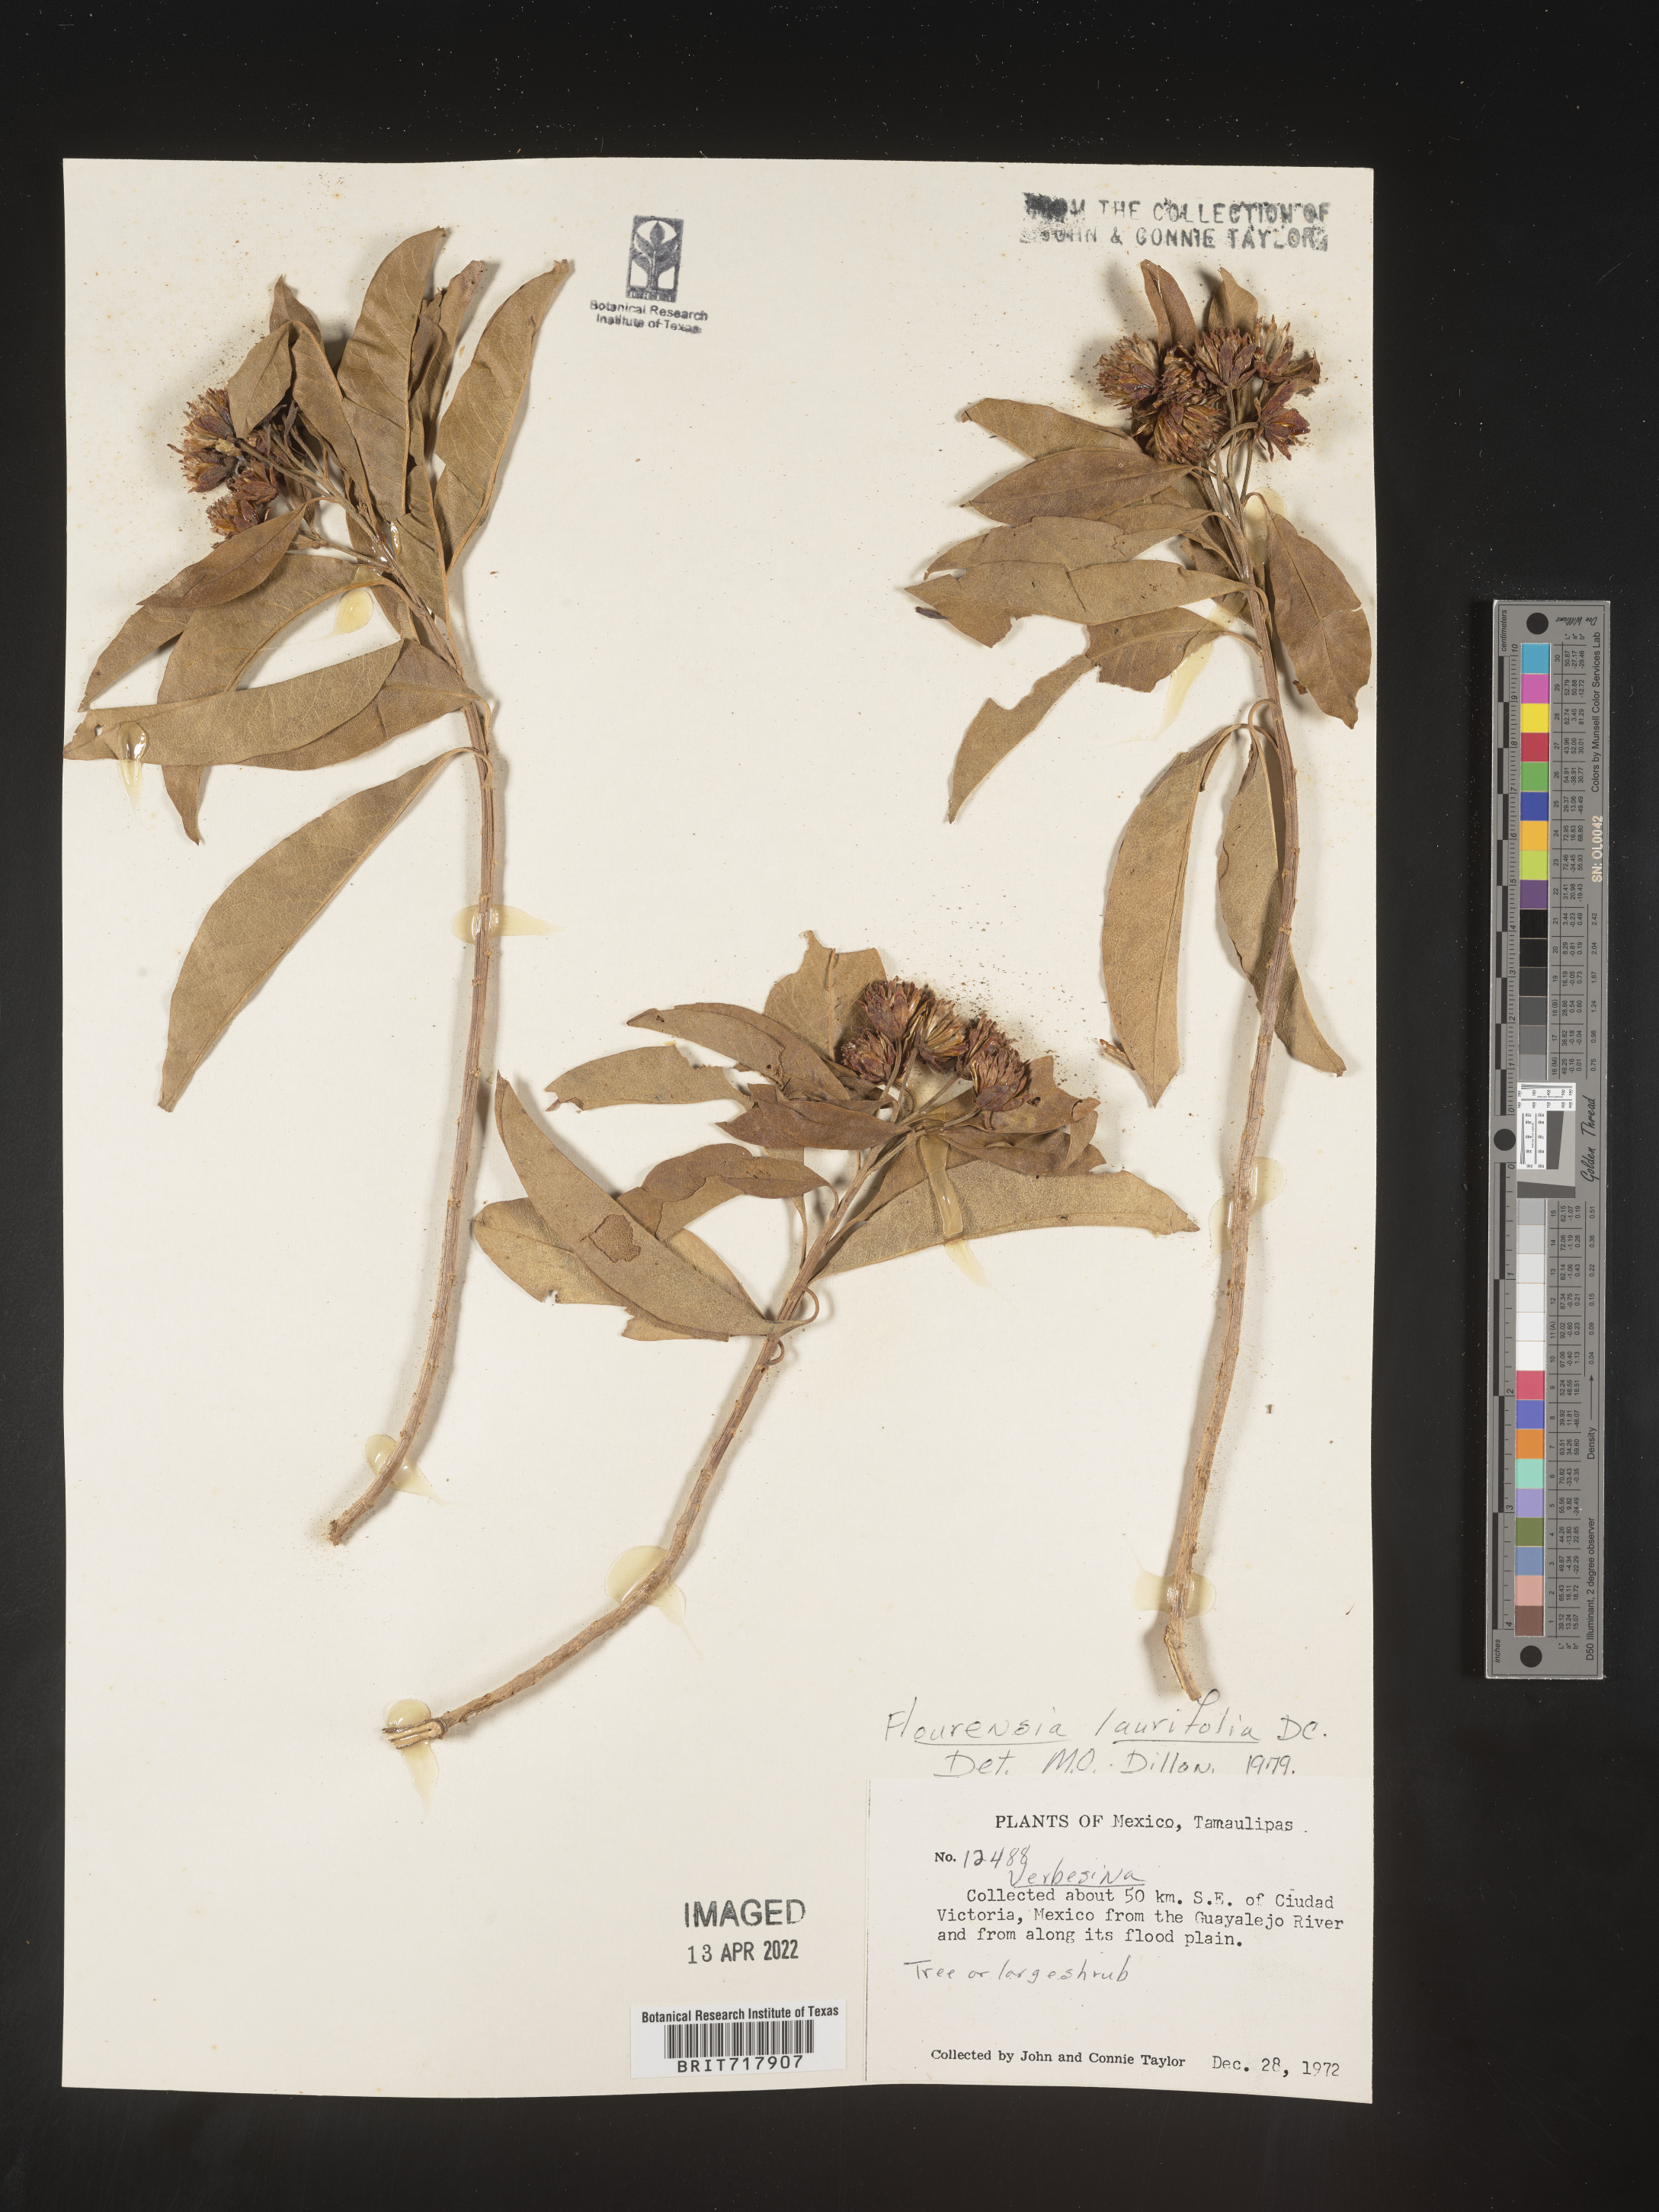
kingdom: Plantae
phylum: Tracheophyta
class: Magnoliopsida
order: Asterales
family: Asteraceae
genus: Flourensia
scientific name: Flourensia
